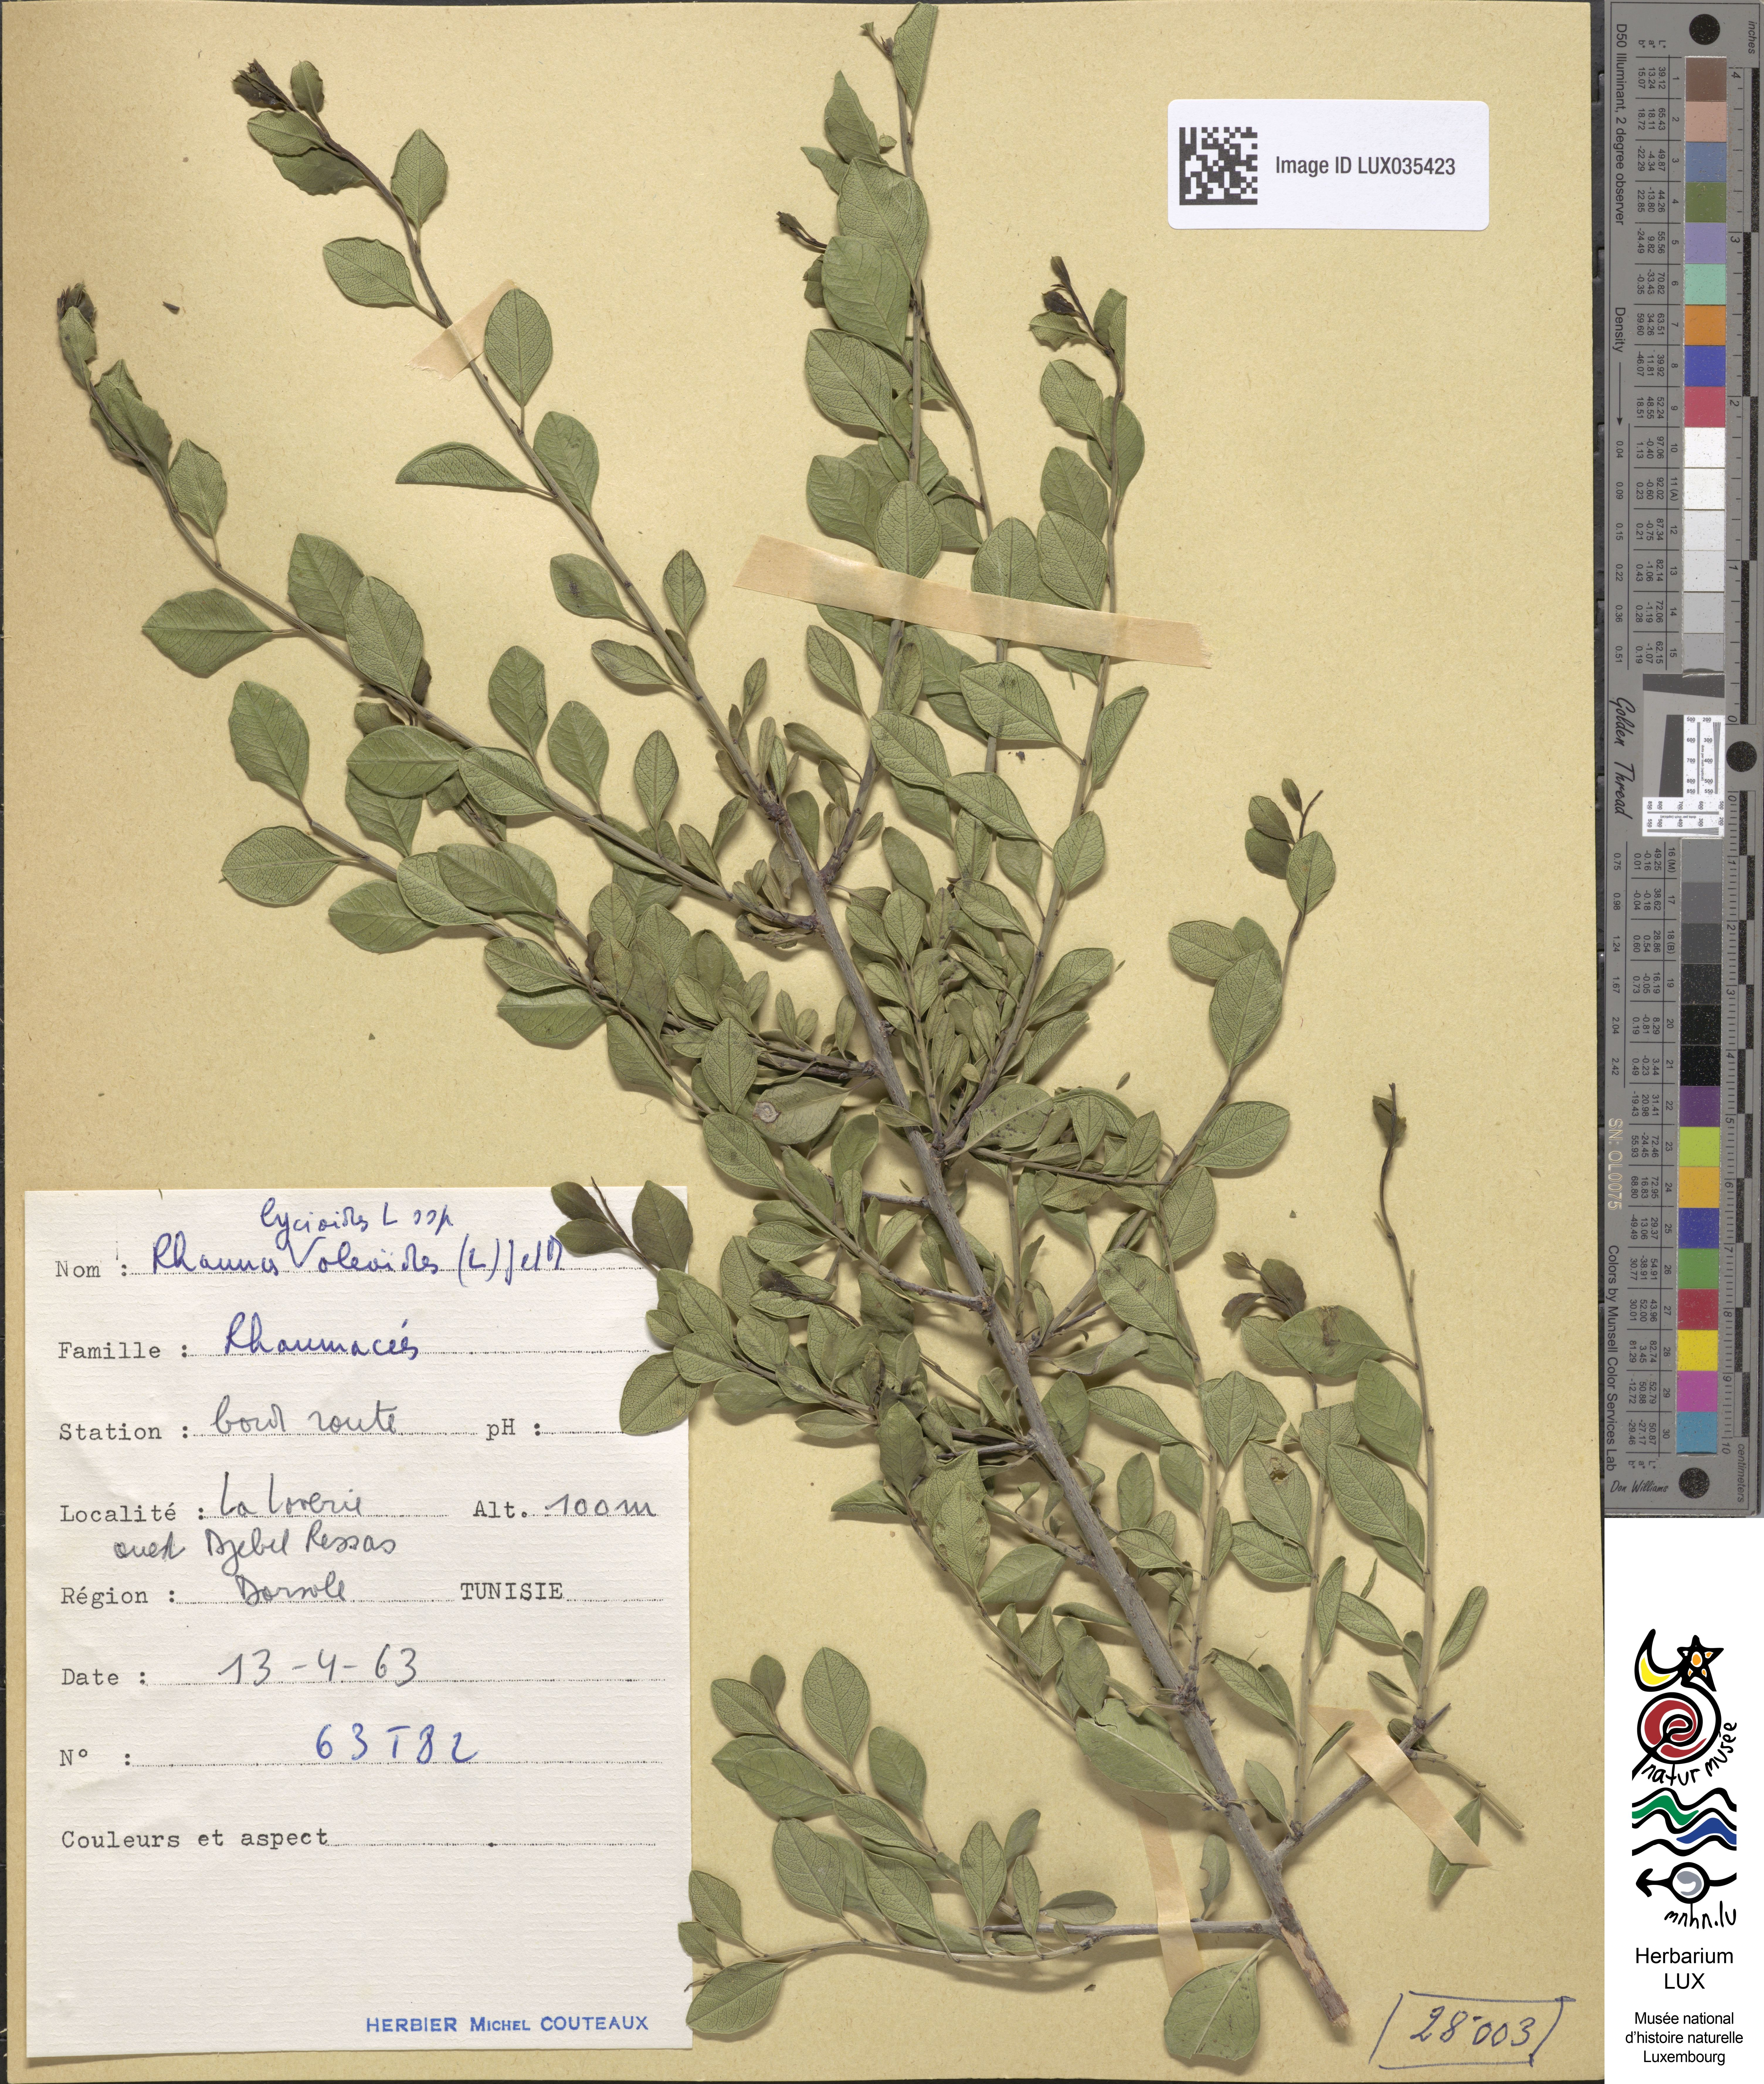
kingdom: Plantae
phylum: Tracheophyta
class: Magnoliopsida
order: Rosales
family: Rhamnaceae
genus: Rhamnus
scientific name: Rhamnus oleoides
